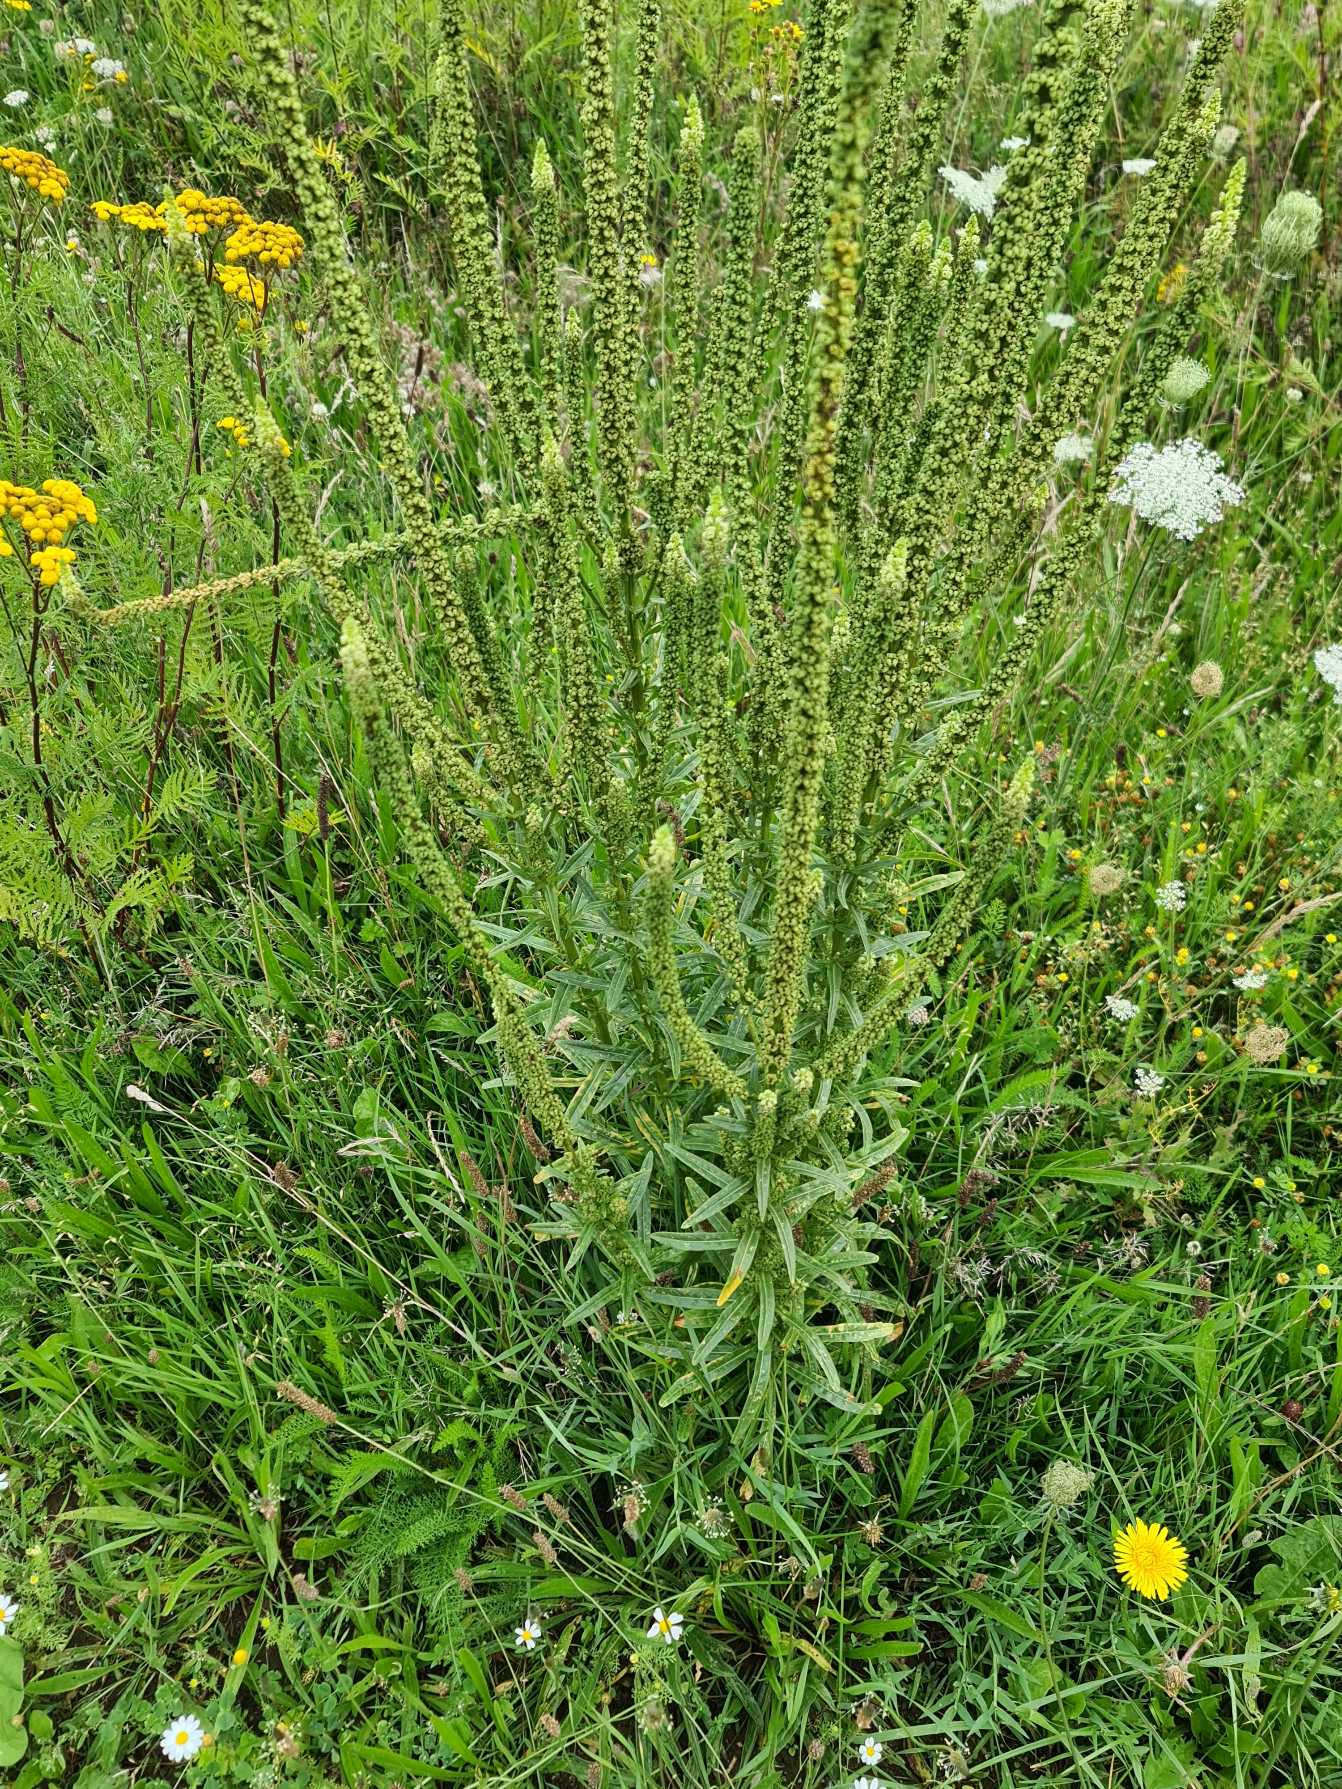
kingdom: Plantae
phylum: Tracheophyta
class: Magnoliopsida
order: Brassicales
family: Resedaceae
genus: Reseda
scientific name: Reseda luteola
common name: Farve-reseda
